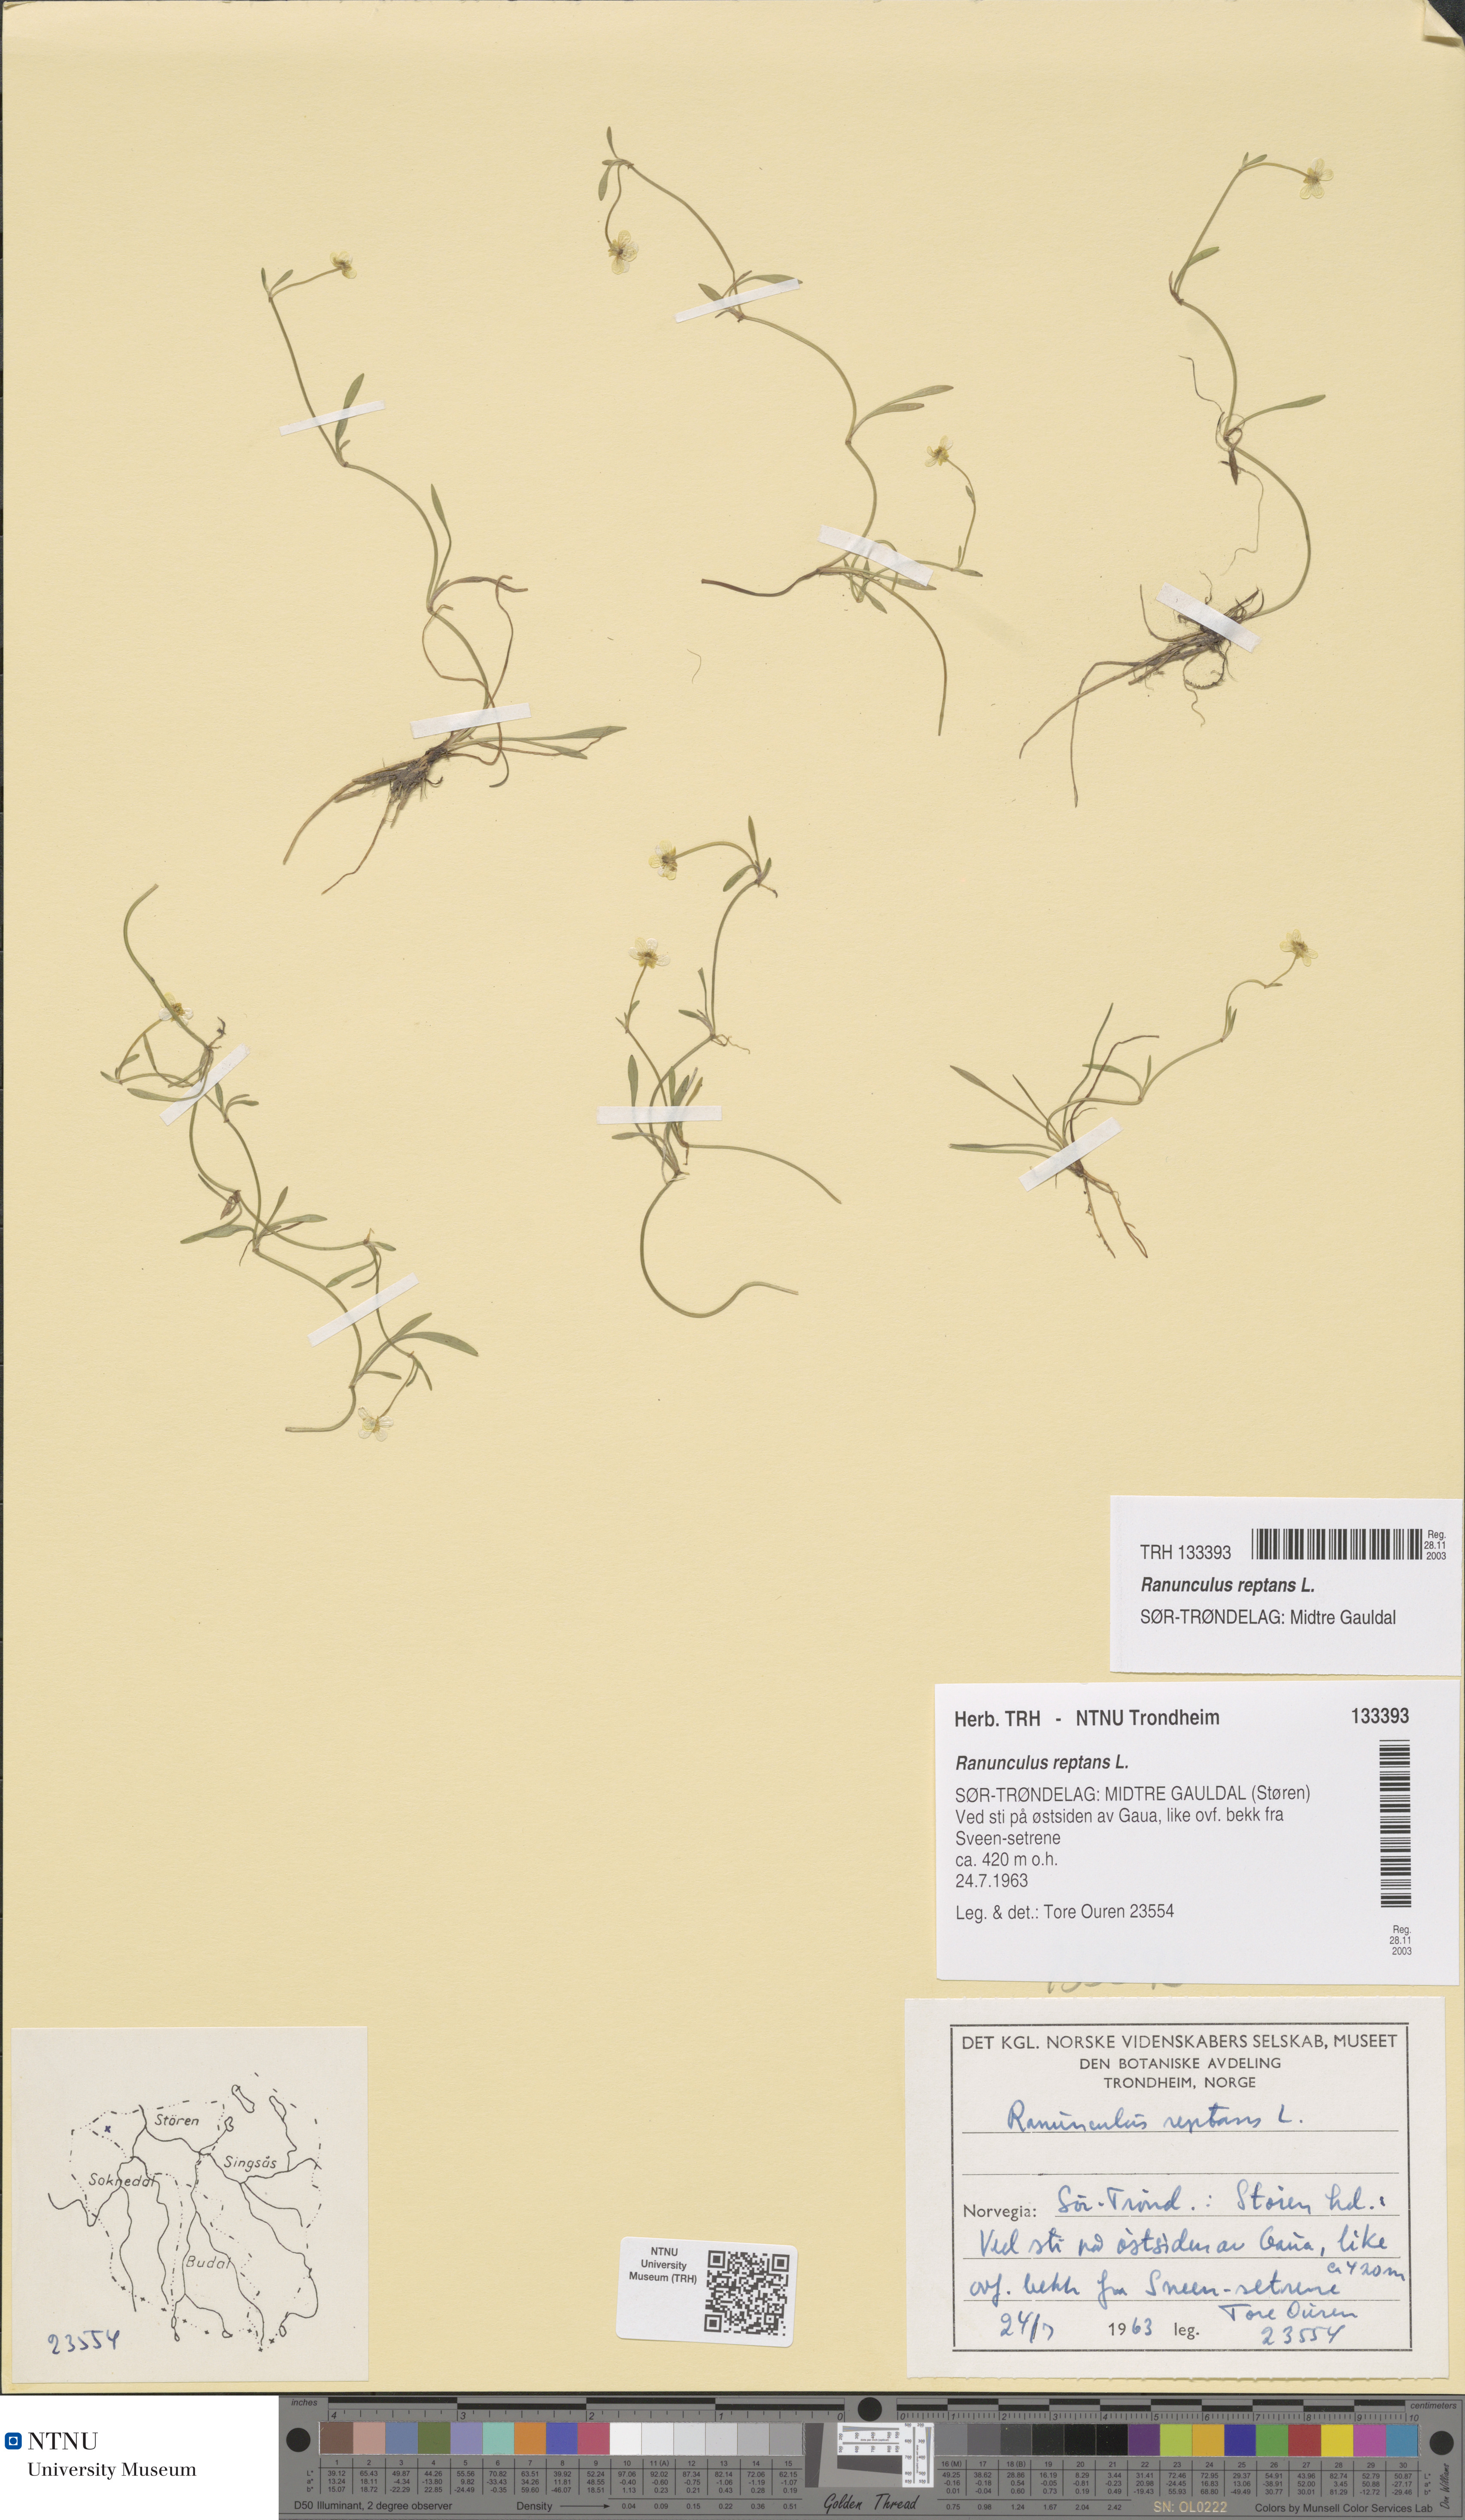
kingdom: Plantae
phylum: Tracheophyta
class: Magnoliopsida
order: Ranunculales
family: Ranunculaceae
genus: Ranunculus
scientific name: Ranunculus reptans
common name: Creeping spearwort
